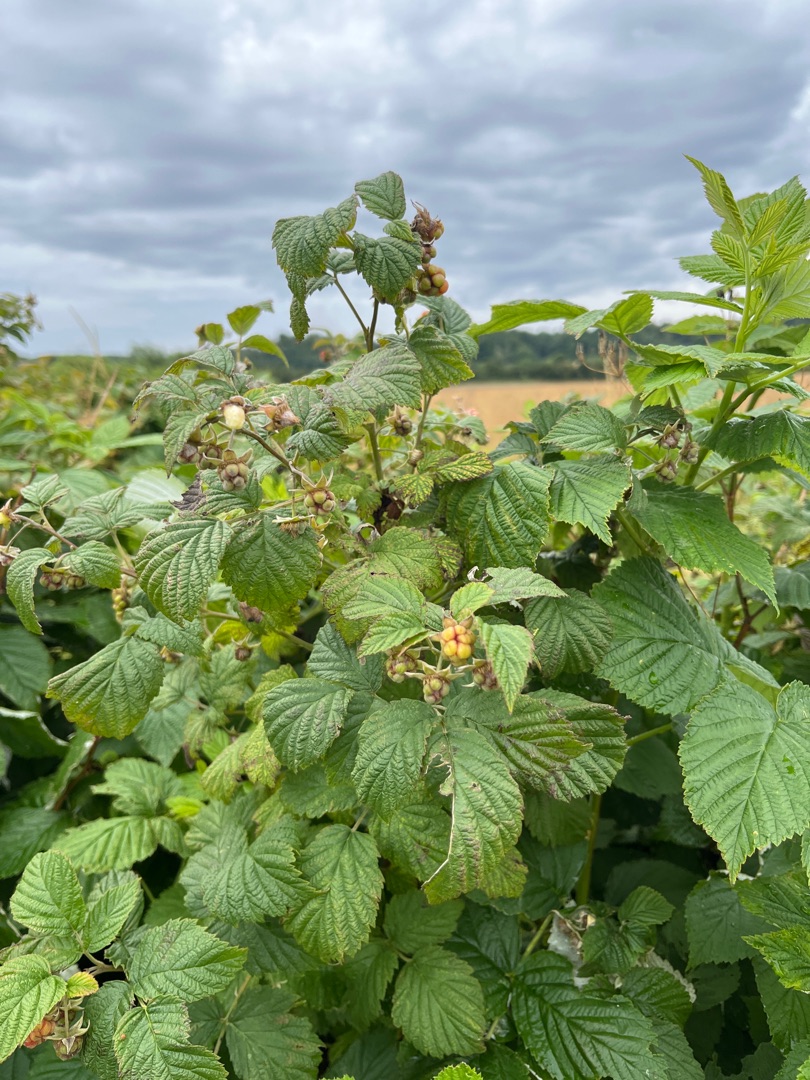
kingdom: Plantae
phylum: Tracheophyta
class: Magnoliopsida
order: Rosales
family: Rosaceae
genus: Rubus
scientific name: Rubus idaeus
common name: Hindbær
